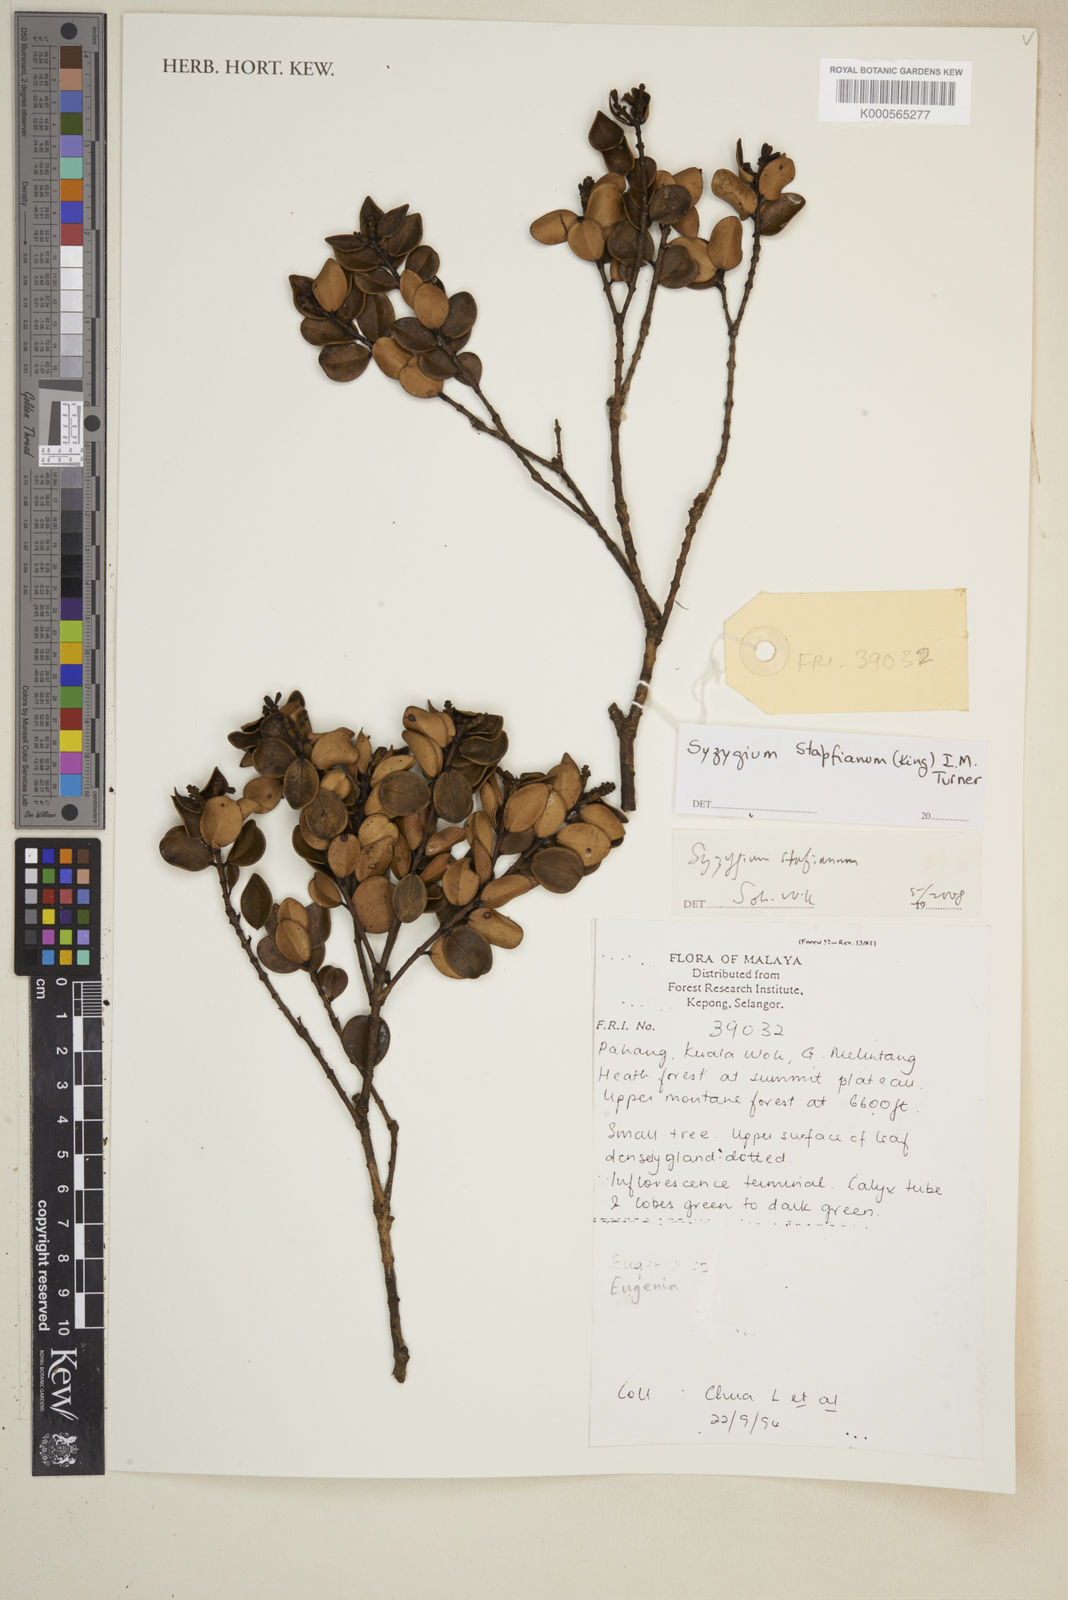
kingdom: Plantae
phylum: Tracheophyta
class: Magnoliopsida
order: Myrtales
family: Myrtaceae
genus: Syzygium
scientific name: Syzygium stapfianum
